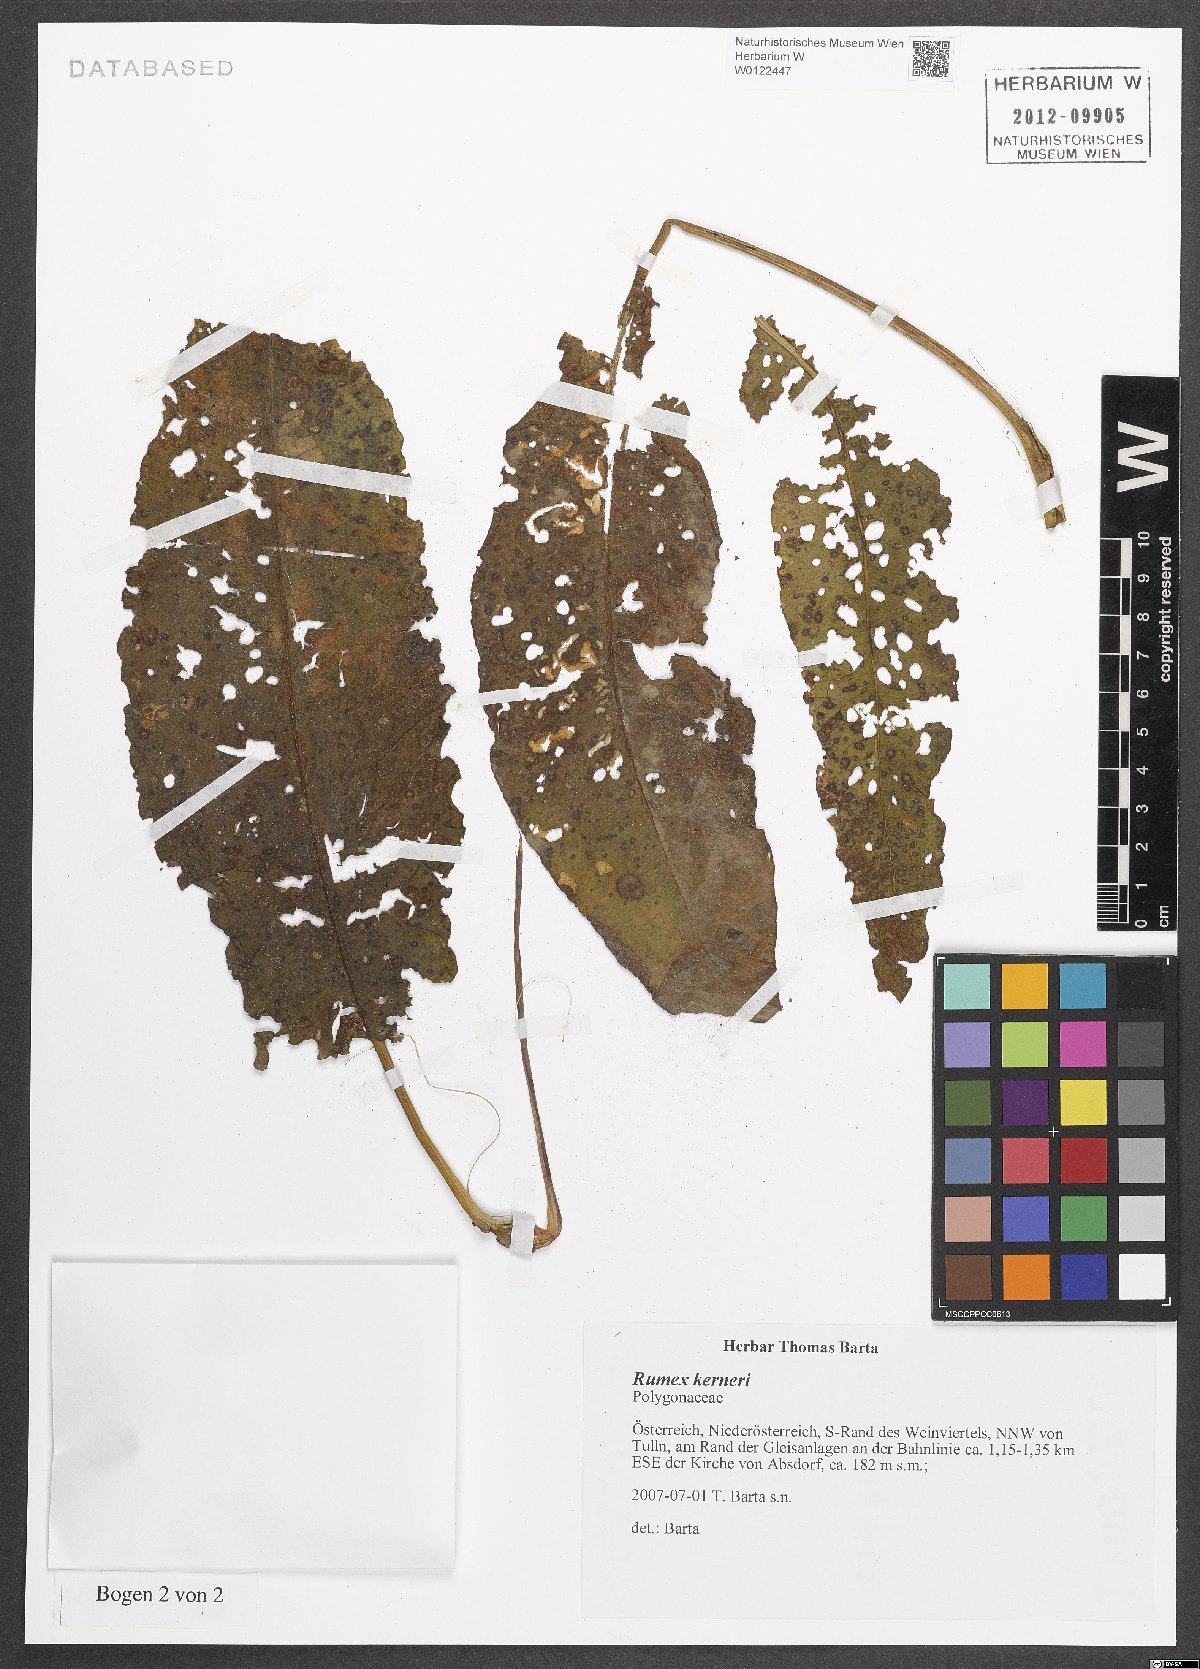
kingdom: Plantae
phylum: Tracheophyta
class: Magnoliopsida
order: Caryophyllales
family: Polygonaceae
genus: Rumex
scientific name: Rumex kerneri
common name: Kerner's dock
